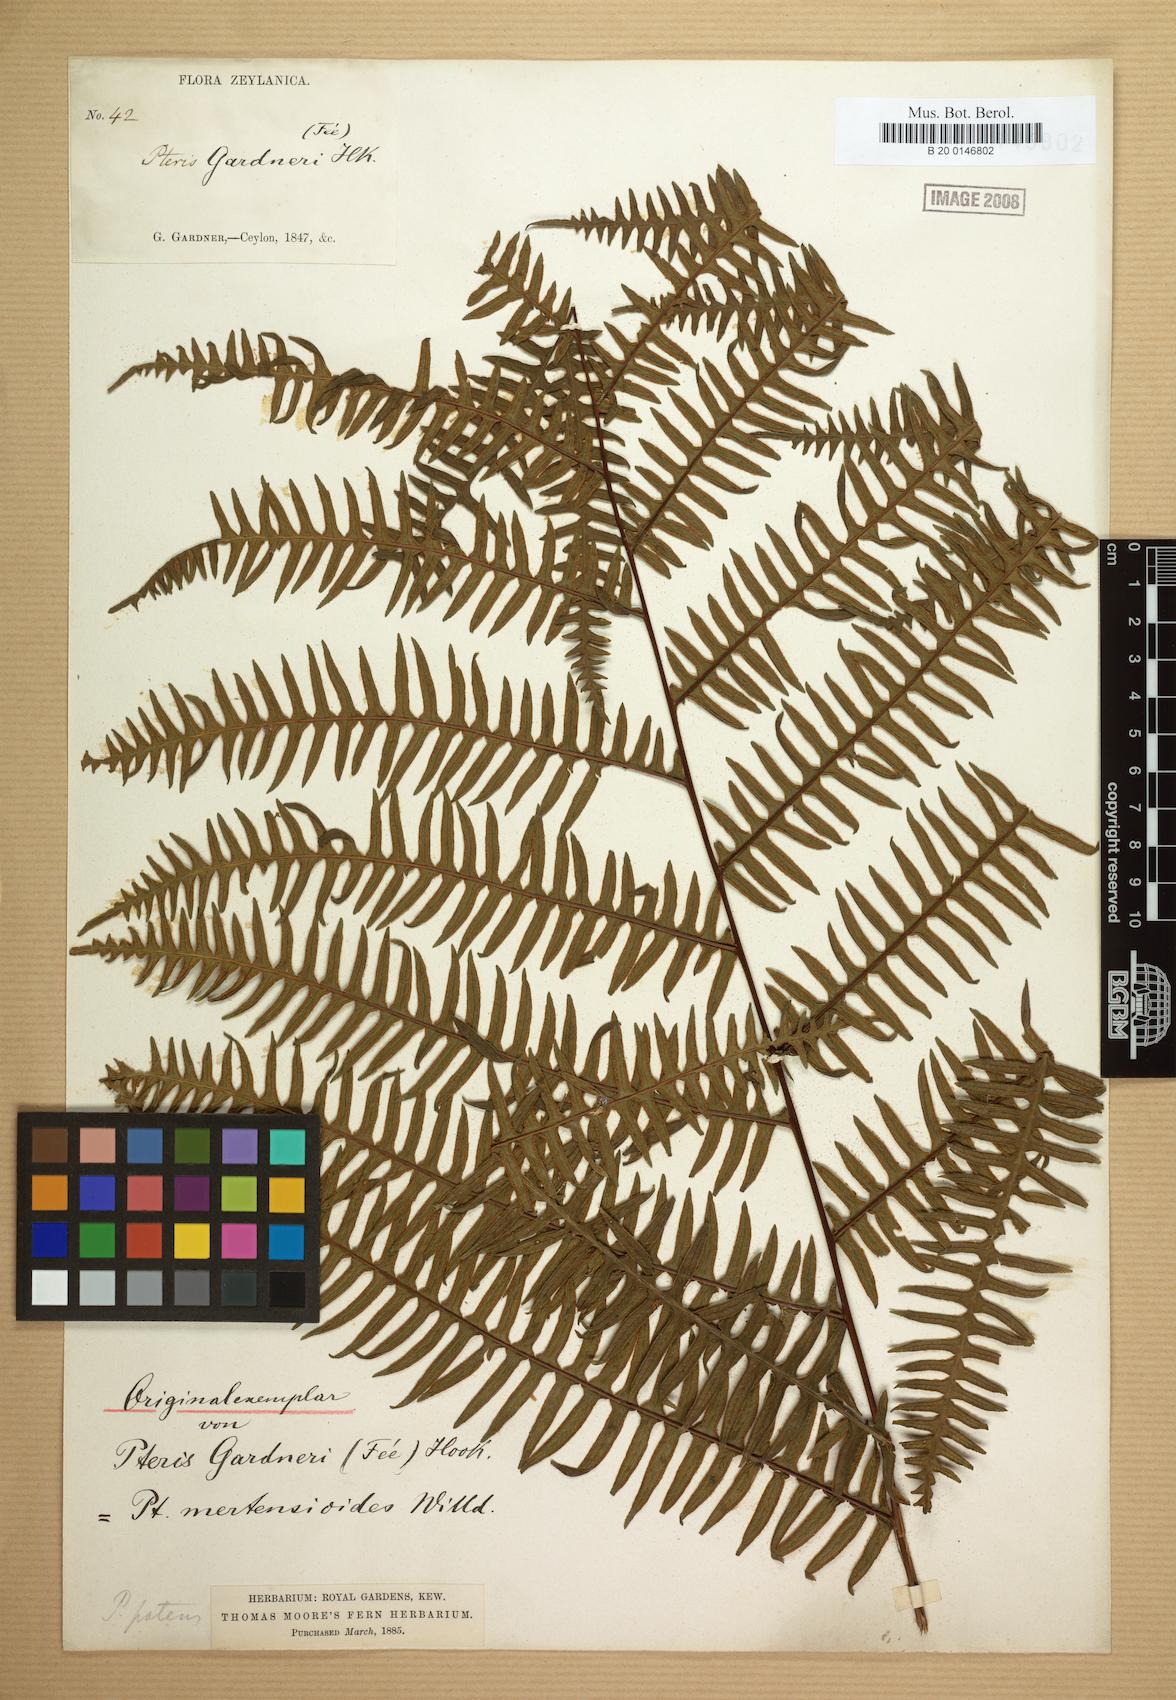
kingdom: Plantae
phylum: Tracheophyta
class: Polypodiopsida
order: Polypodiales
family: Pteridaceae
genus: Pteris
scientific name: Pteris mertensioides
